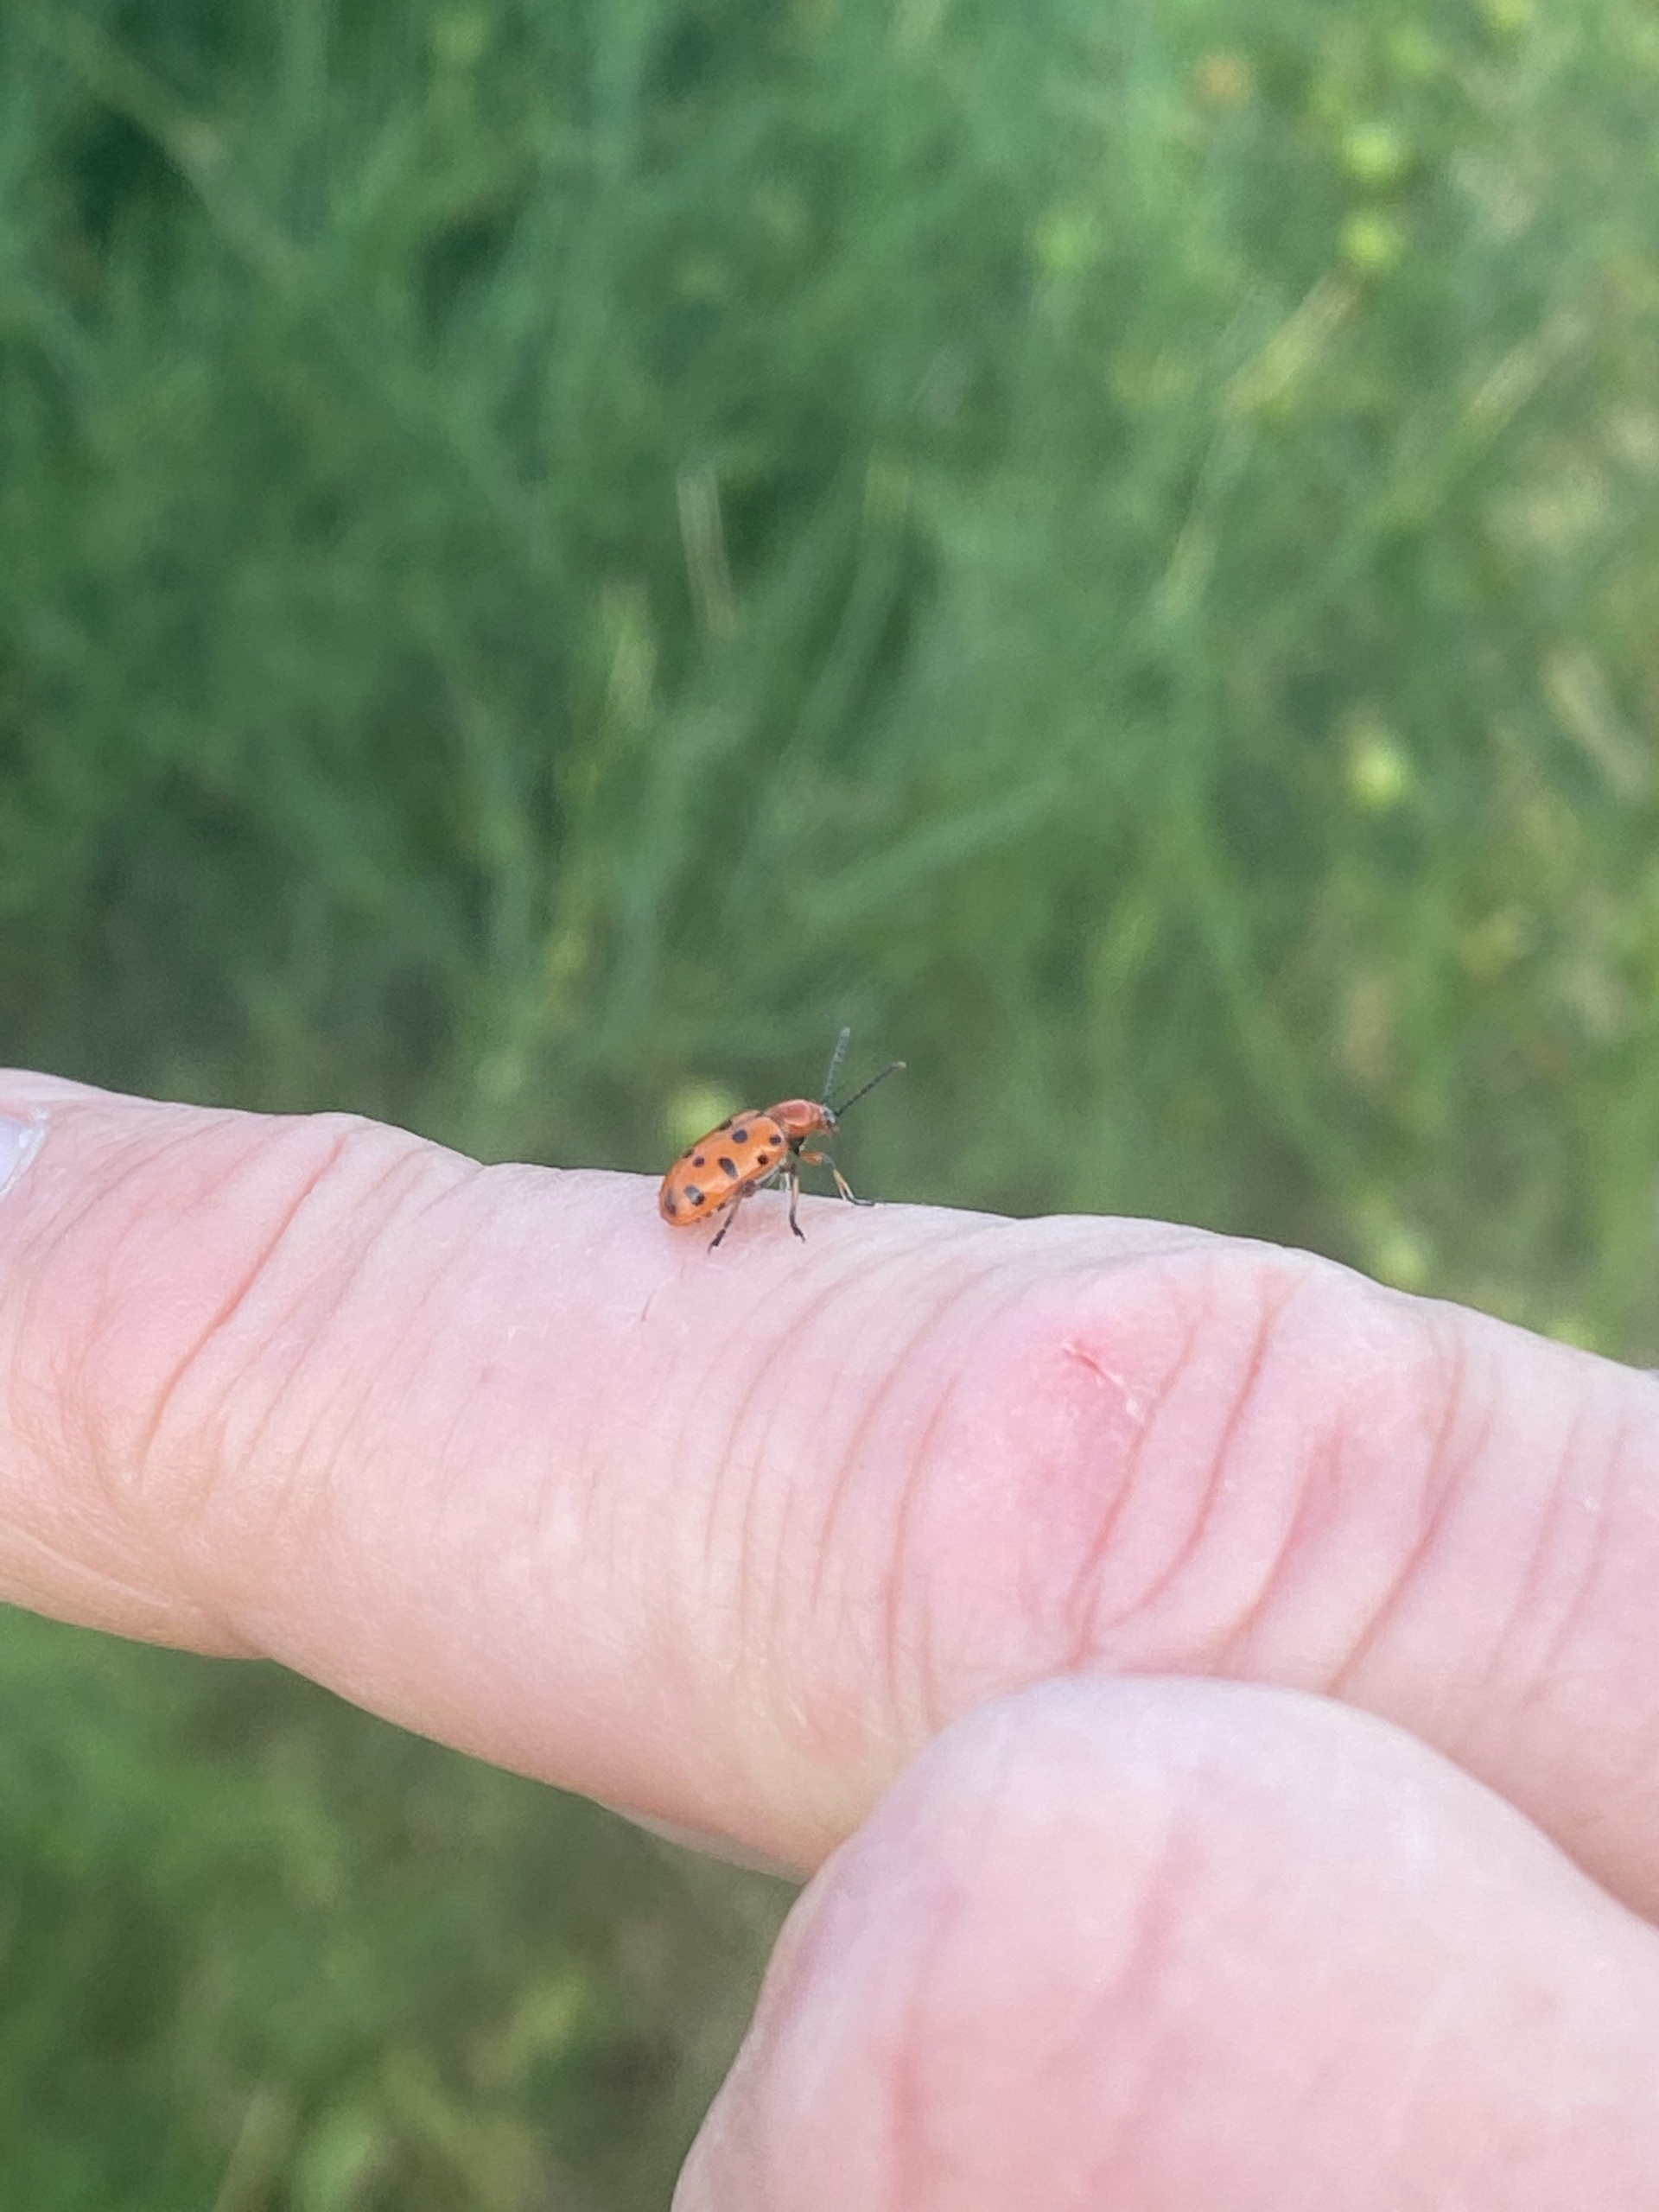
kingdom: Animalia
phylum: Arthropoda
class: Insecta
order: Coleoptera
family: Chrysomelidae
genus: Crioceris
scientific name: Crioceris duodecimpunctata
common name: Tolvplettet aspargesbille
